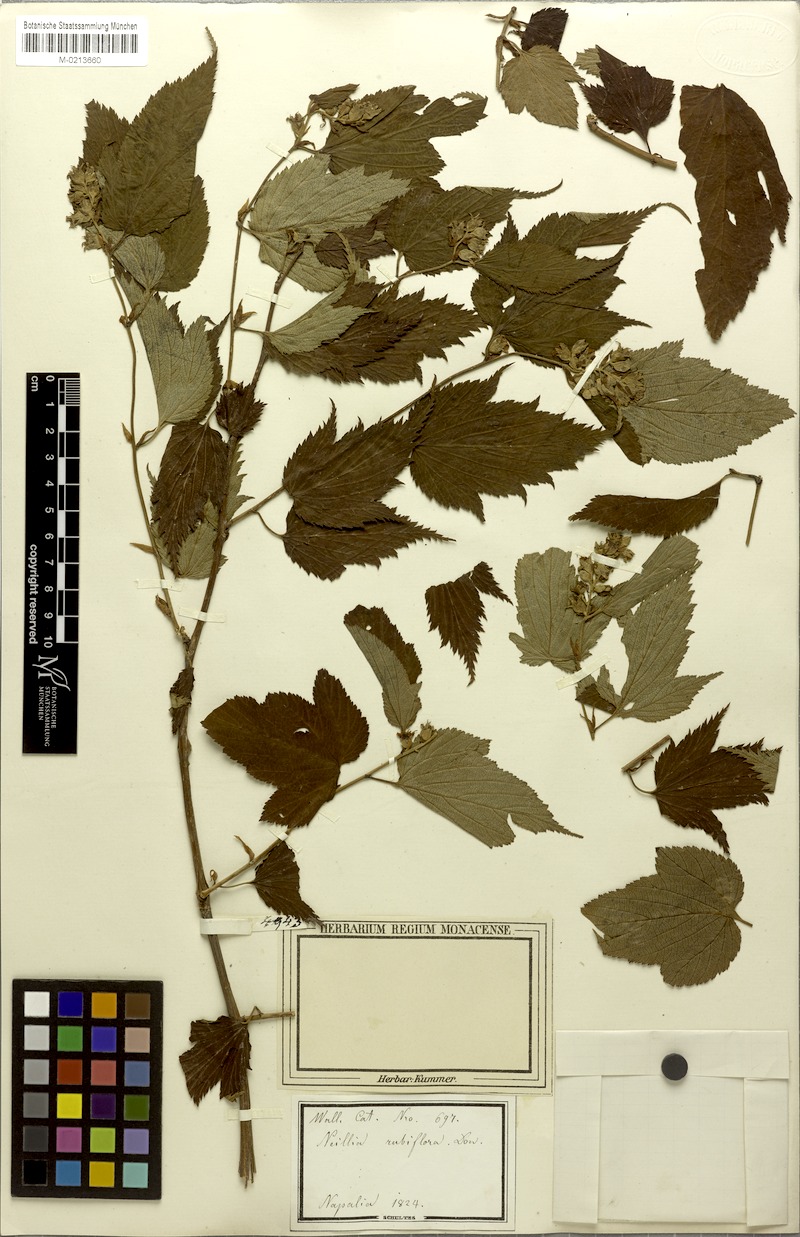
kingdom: Plantae
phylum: Tracheophyta
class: Magnoliopsida
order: Rosales
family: Rosaceae
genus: Neillia
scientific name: Neillia rubiflora
